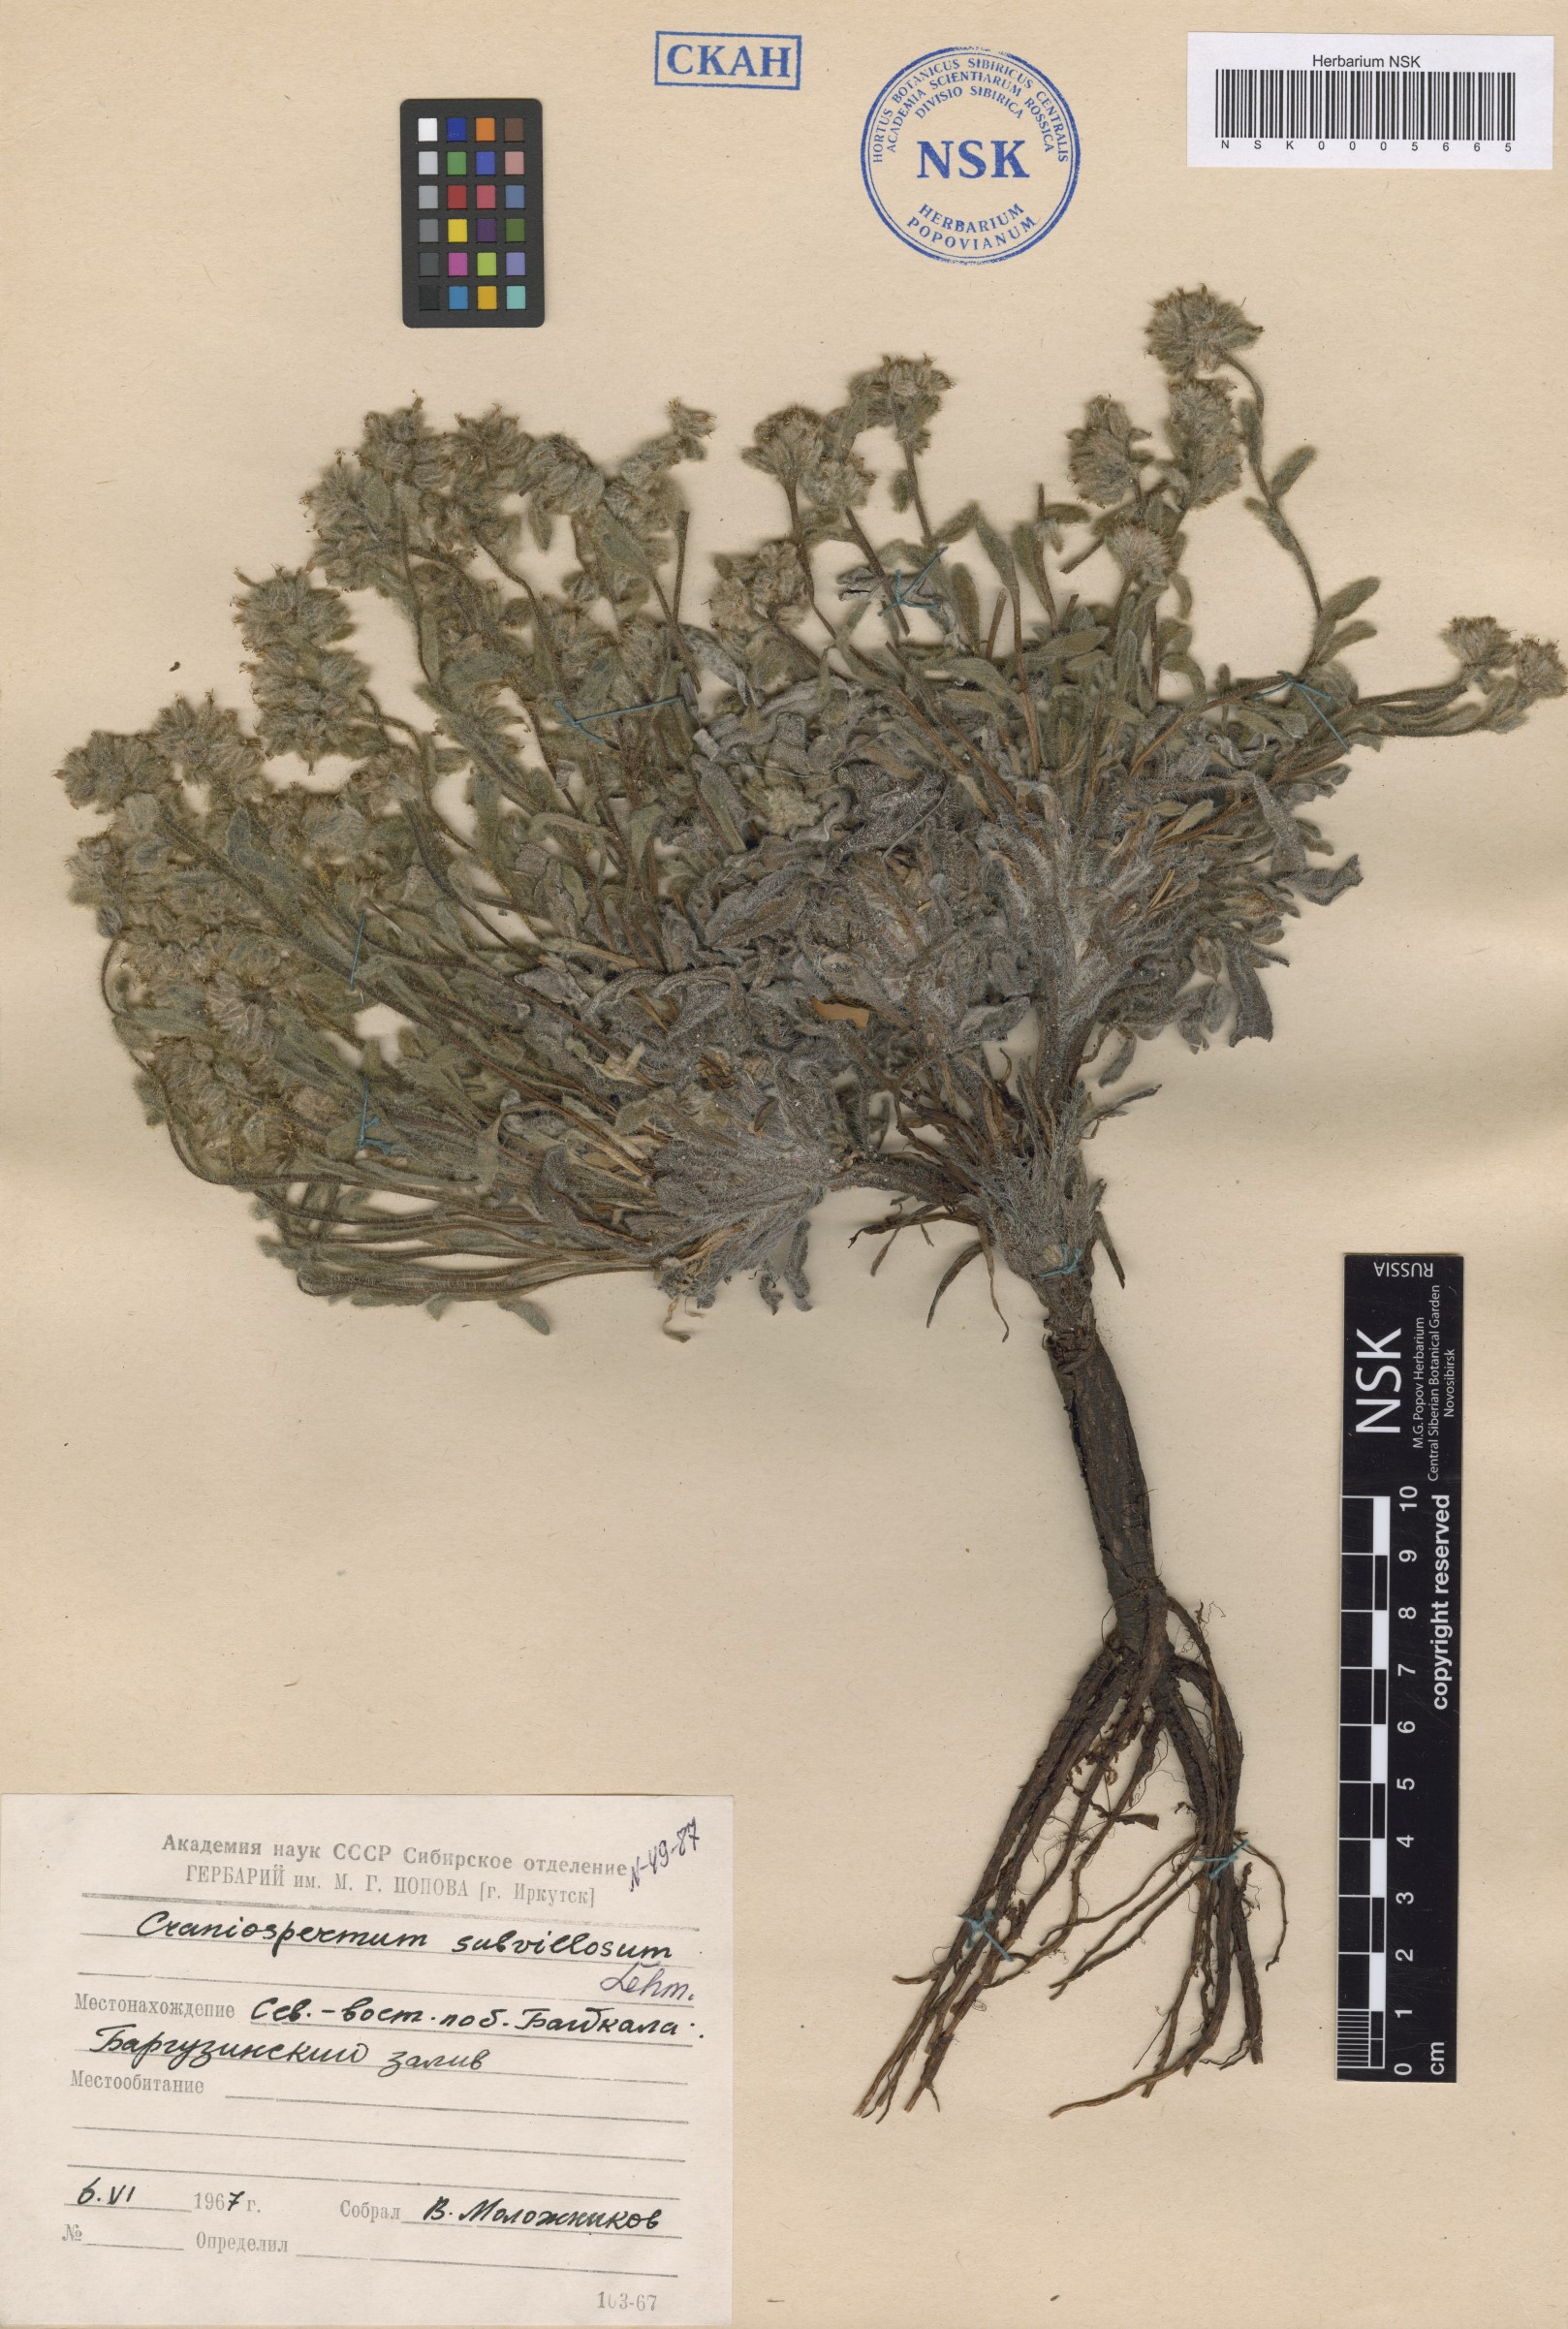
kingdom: Plantae
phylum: Tracheophyta
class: Magnoliopsida
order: Boraginales
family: Boraginaceae
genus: Craniospermum
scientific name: Craniospermum subvillosum
